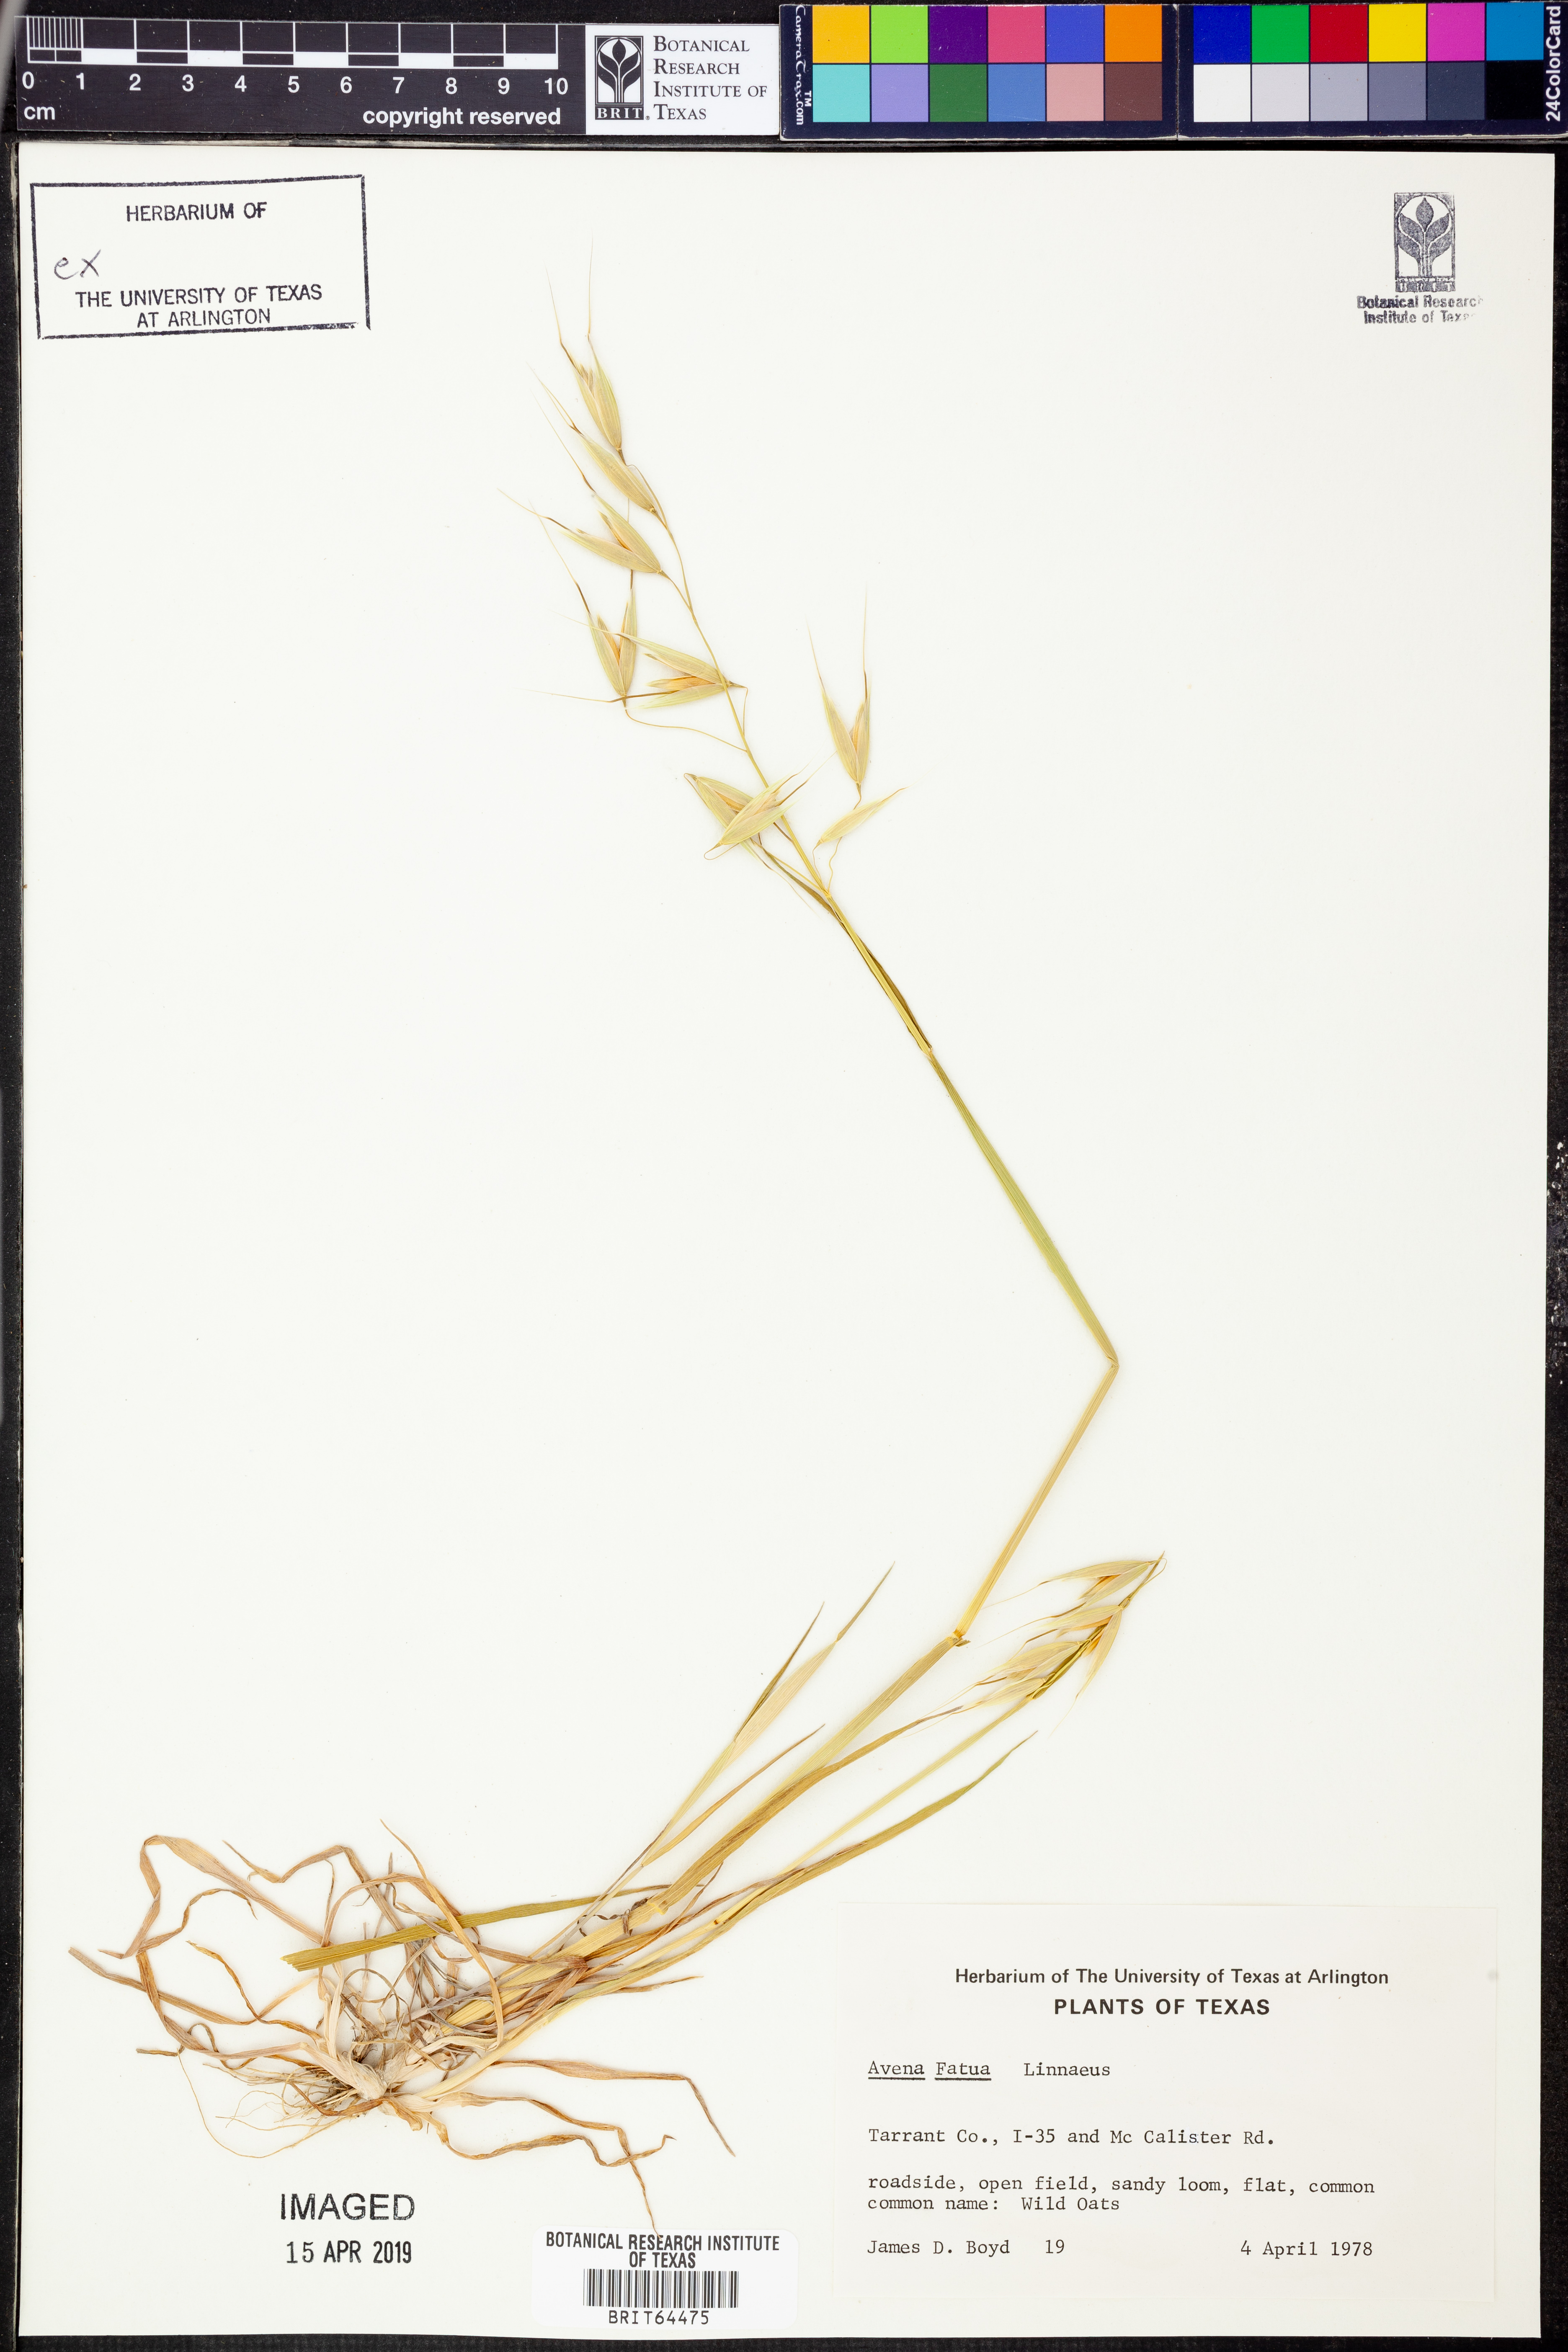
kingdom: Plantae
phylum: Tracheophyta
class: Liliopsida
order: Poales
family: Poaceae
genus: Avena
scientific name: Avena fatua
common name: Wild oat
